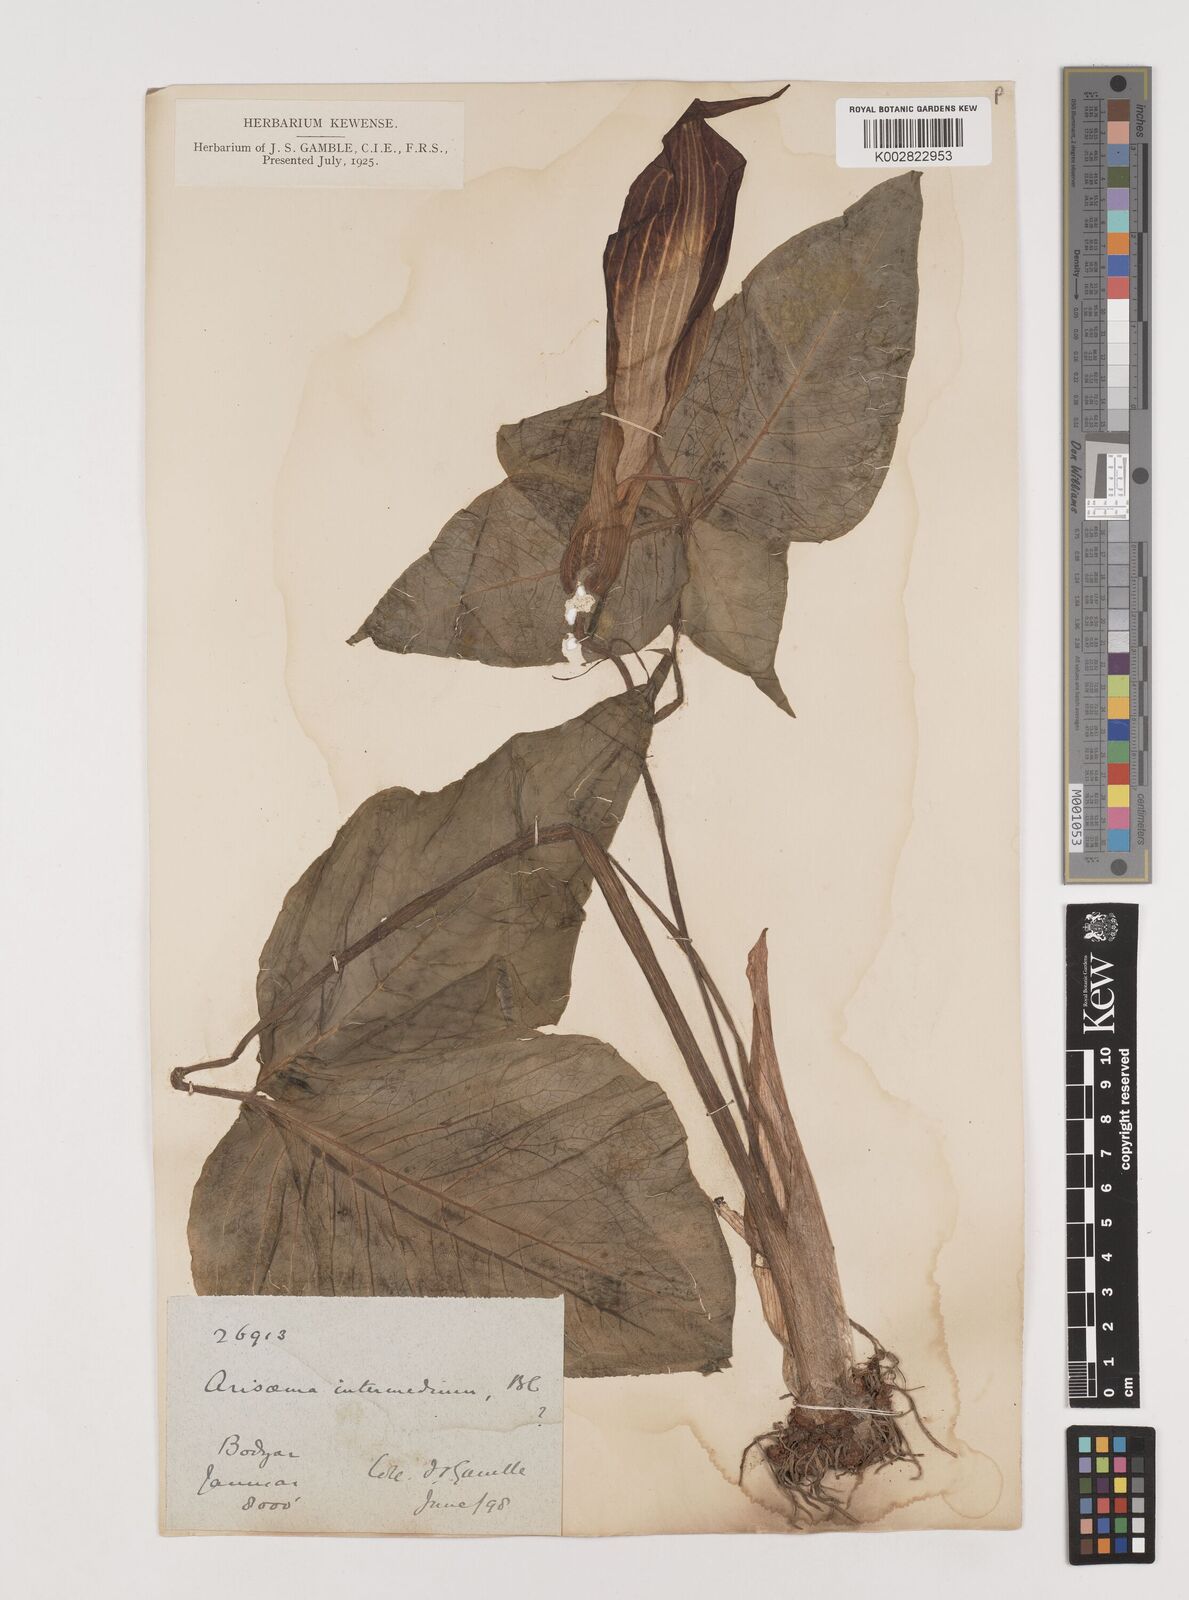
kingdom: Plantae
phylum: Tracheophyta
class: Liliopsida
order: Alismatales
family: Araceae
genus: Arisaema
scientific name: Arisaema intermedium
